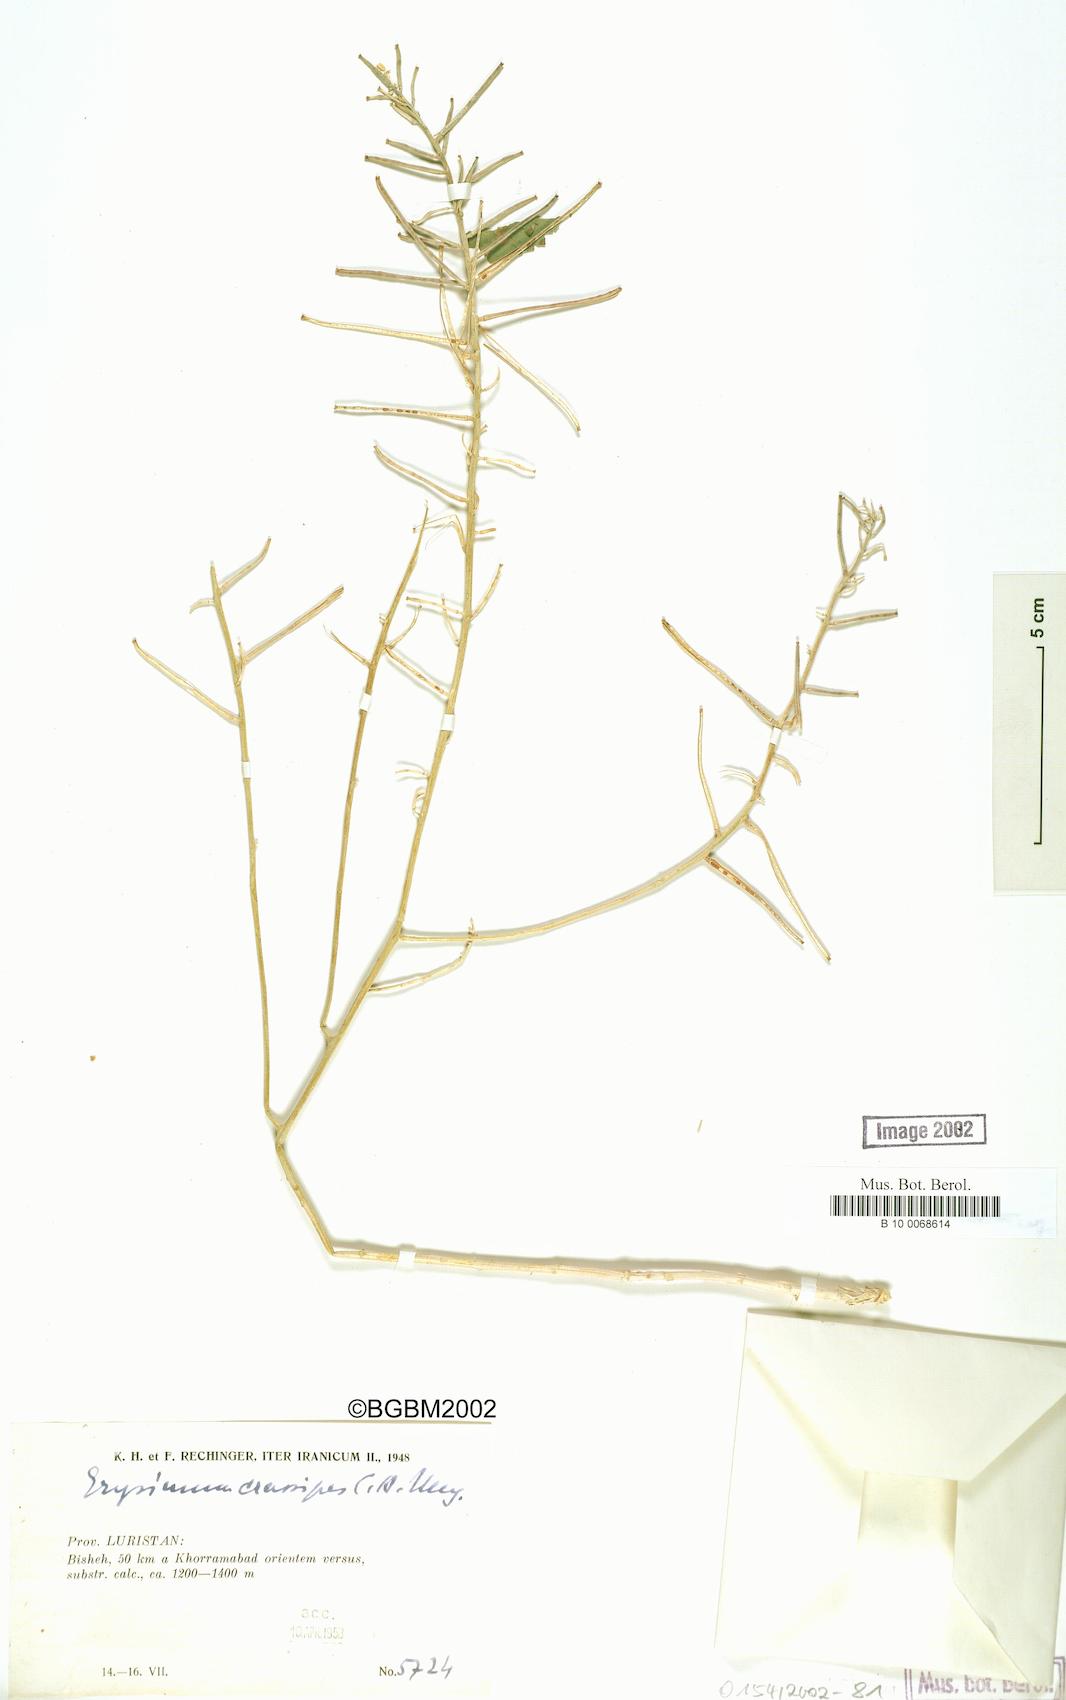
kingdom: Plantae
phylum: Tracheophyta
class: Magnoliopsida
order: Brassicales
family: Brassicaceae
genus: Erysimum
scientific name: Erysimum crassipes
